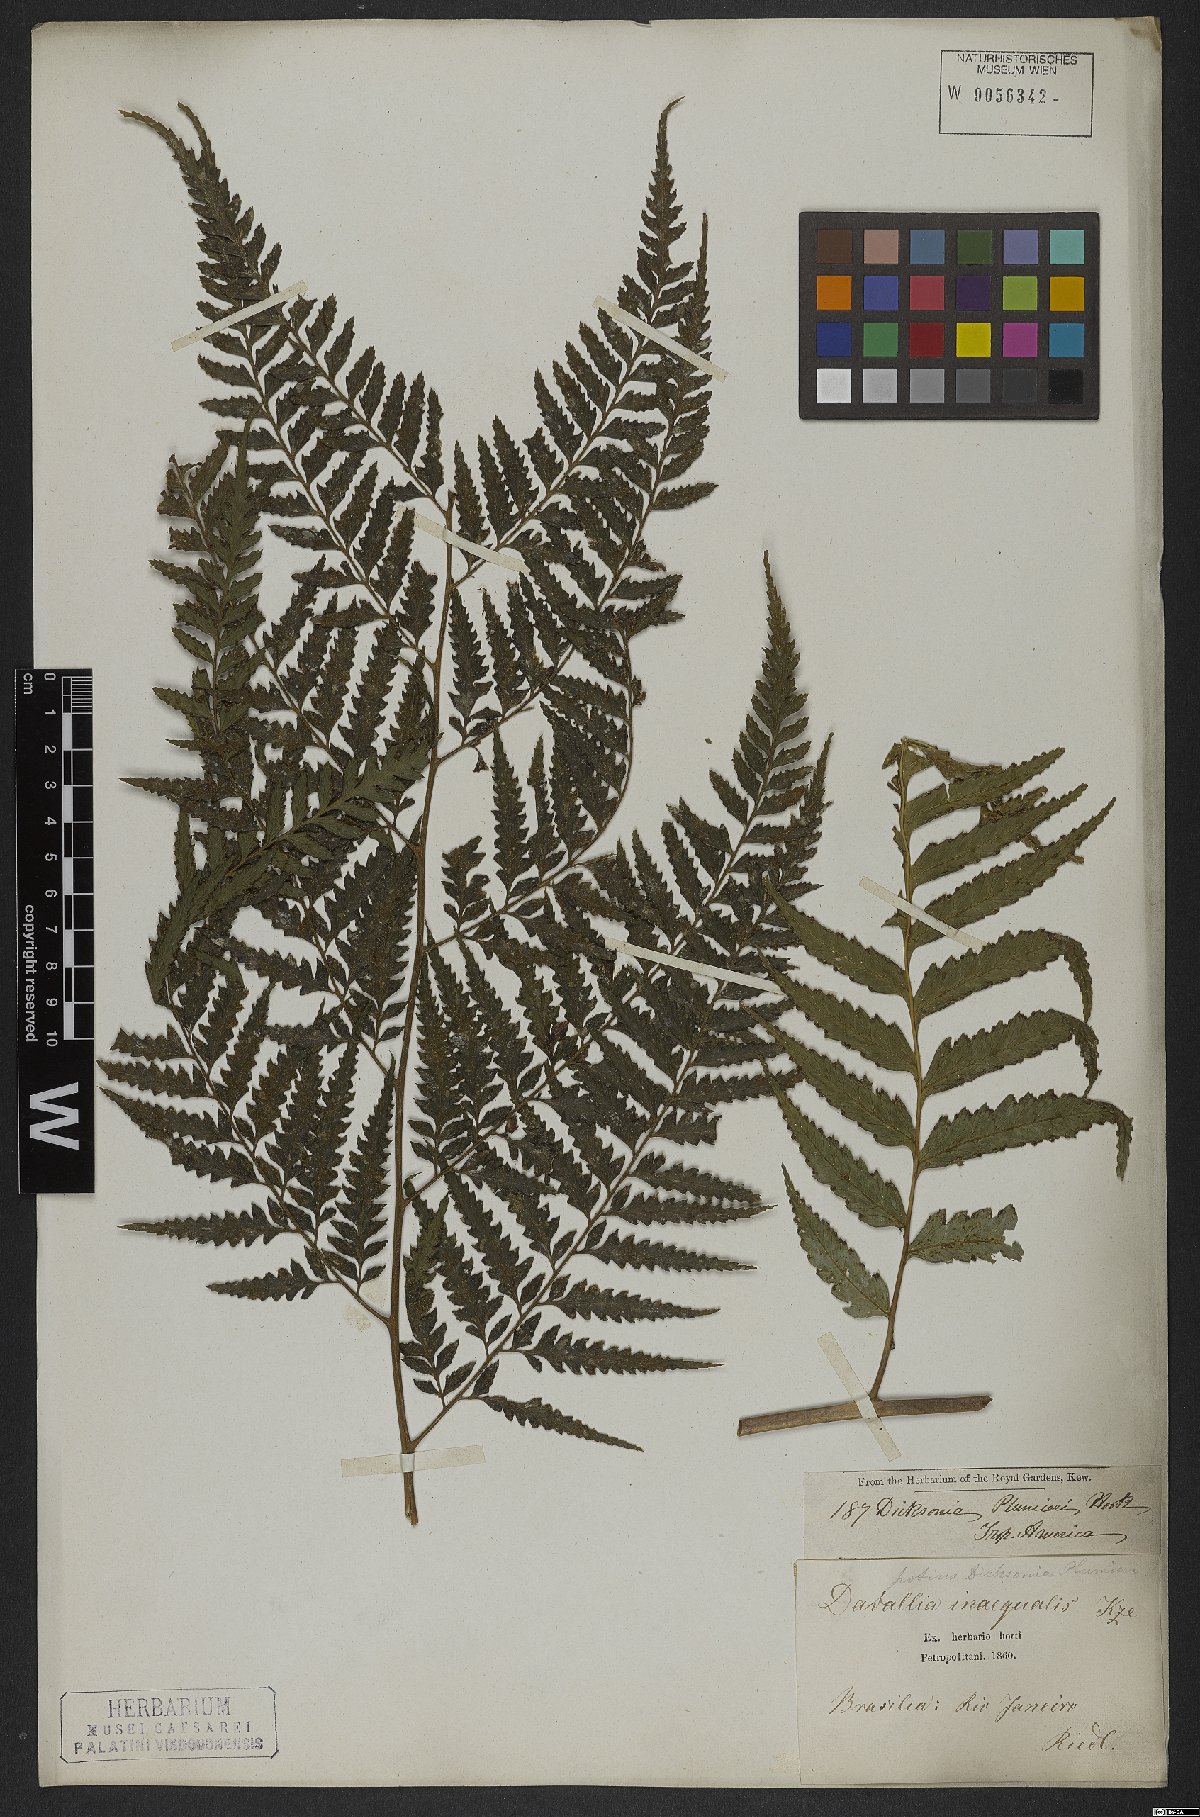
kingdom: Plantae
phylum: Tracheophyta
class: Polypodiopsida
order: Polypodiales
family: Saccolomataceae
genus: Saccoloma
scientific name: Saccoloma domingense
